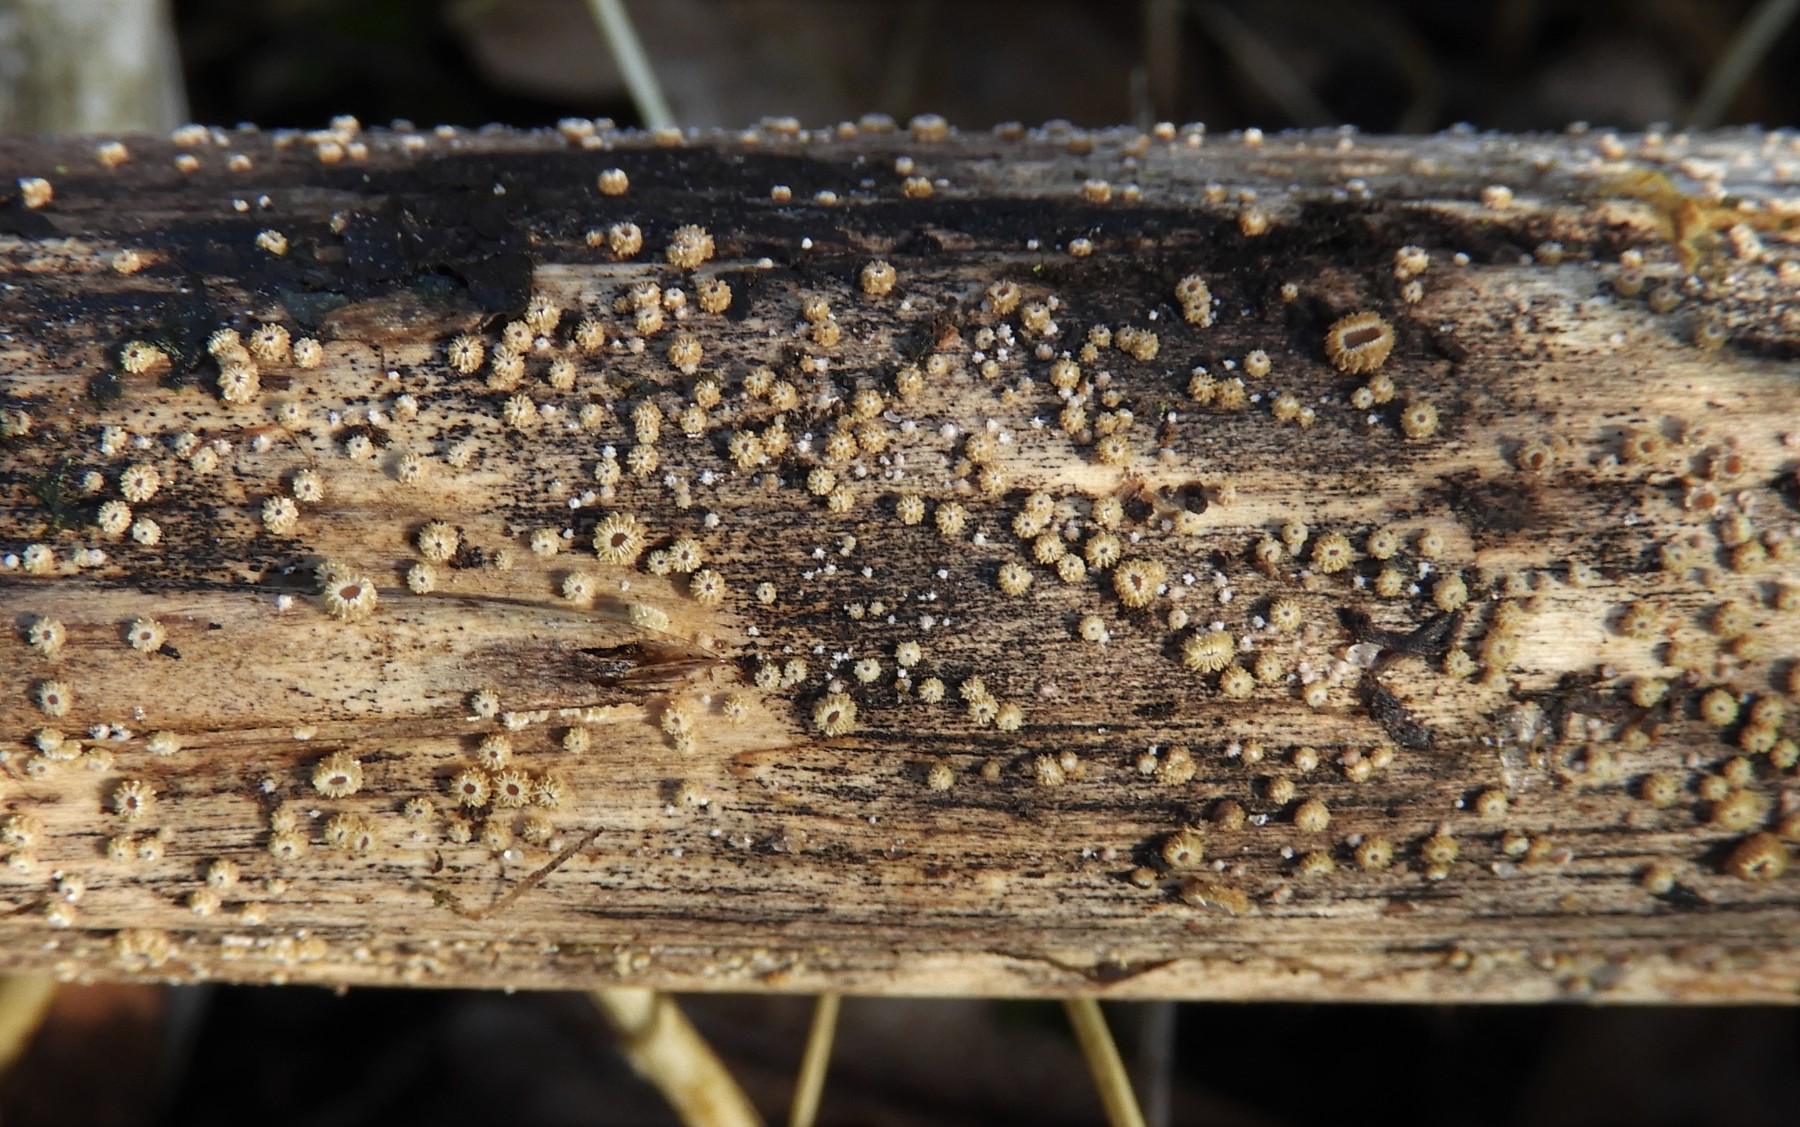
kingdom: Fungi
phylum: Ascomycota
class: Leotiomycetes
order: Helotiales
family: Lachnaceae
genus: Trichopeziza
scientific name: Trichopeziza
